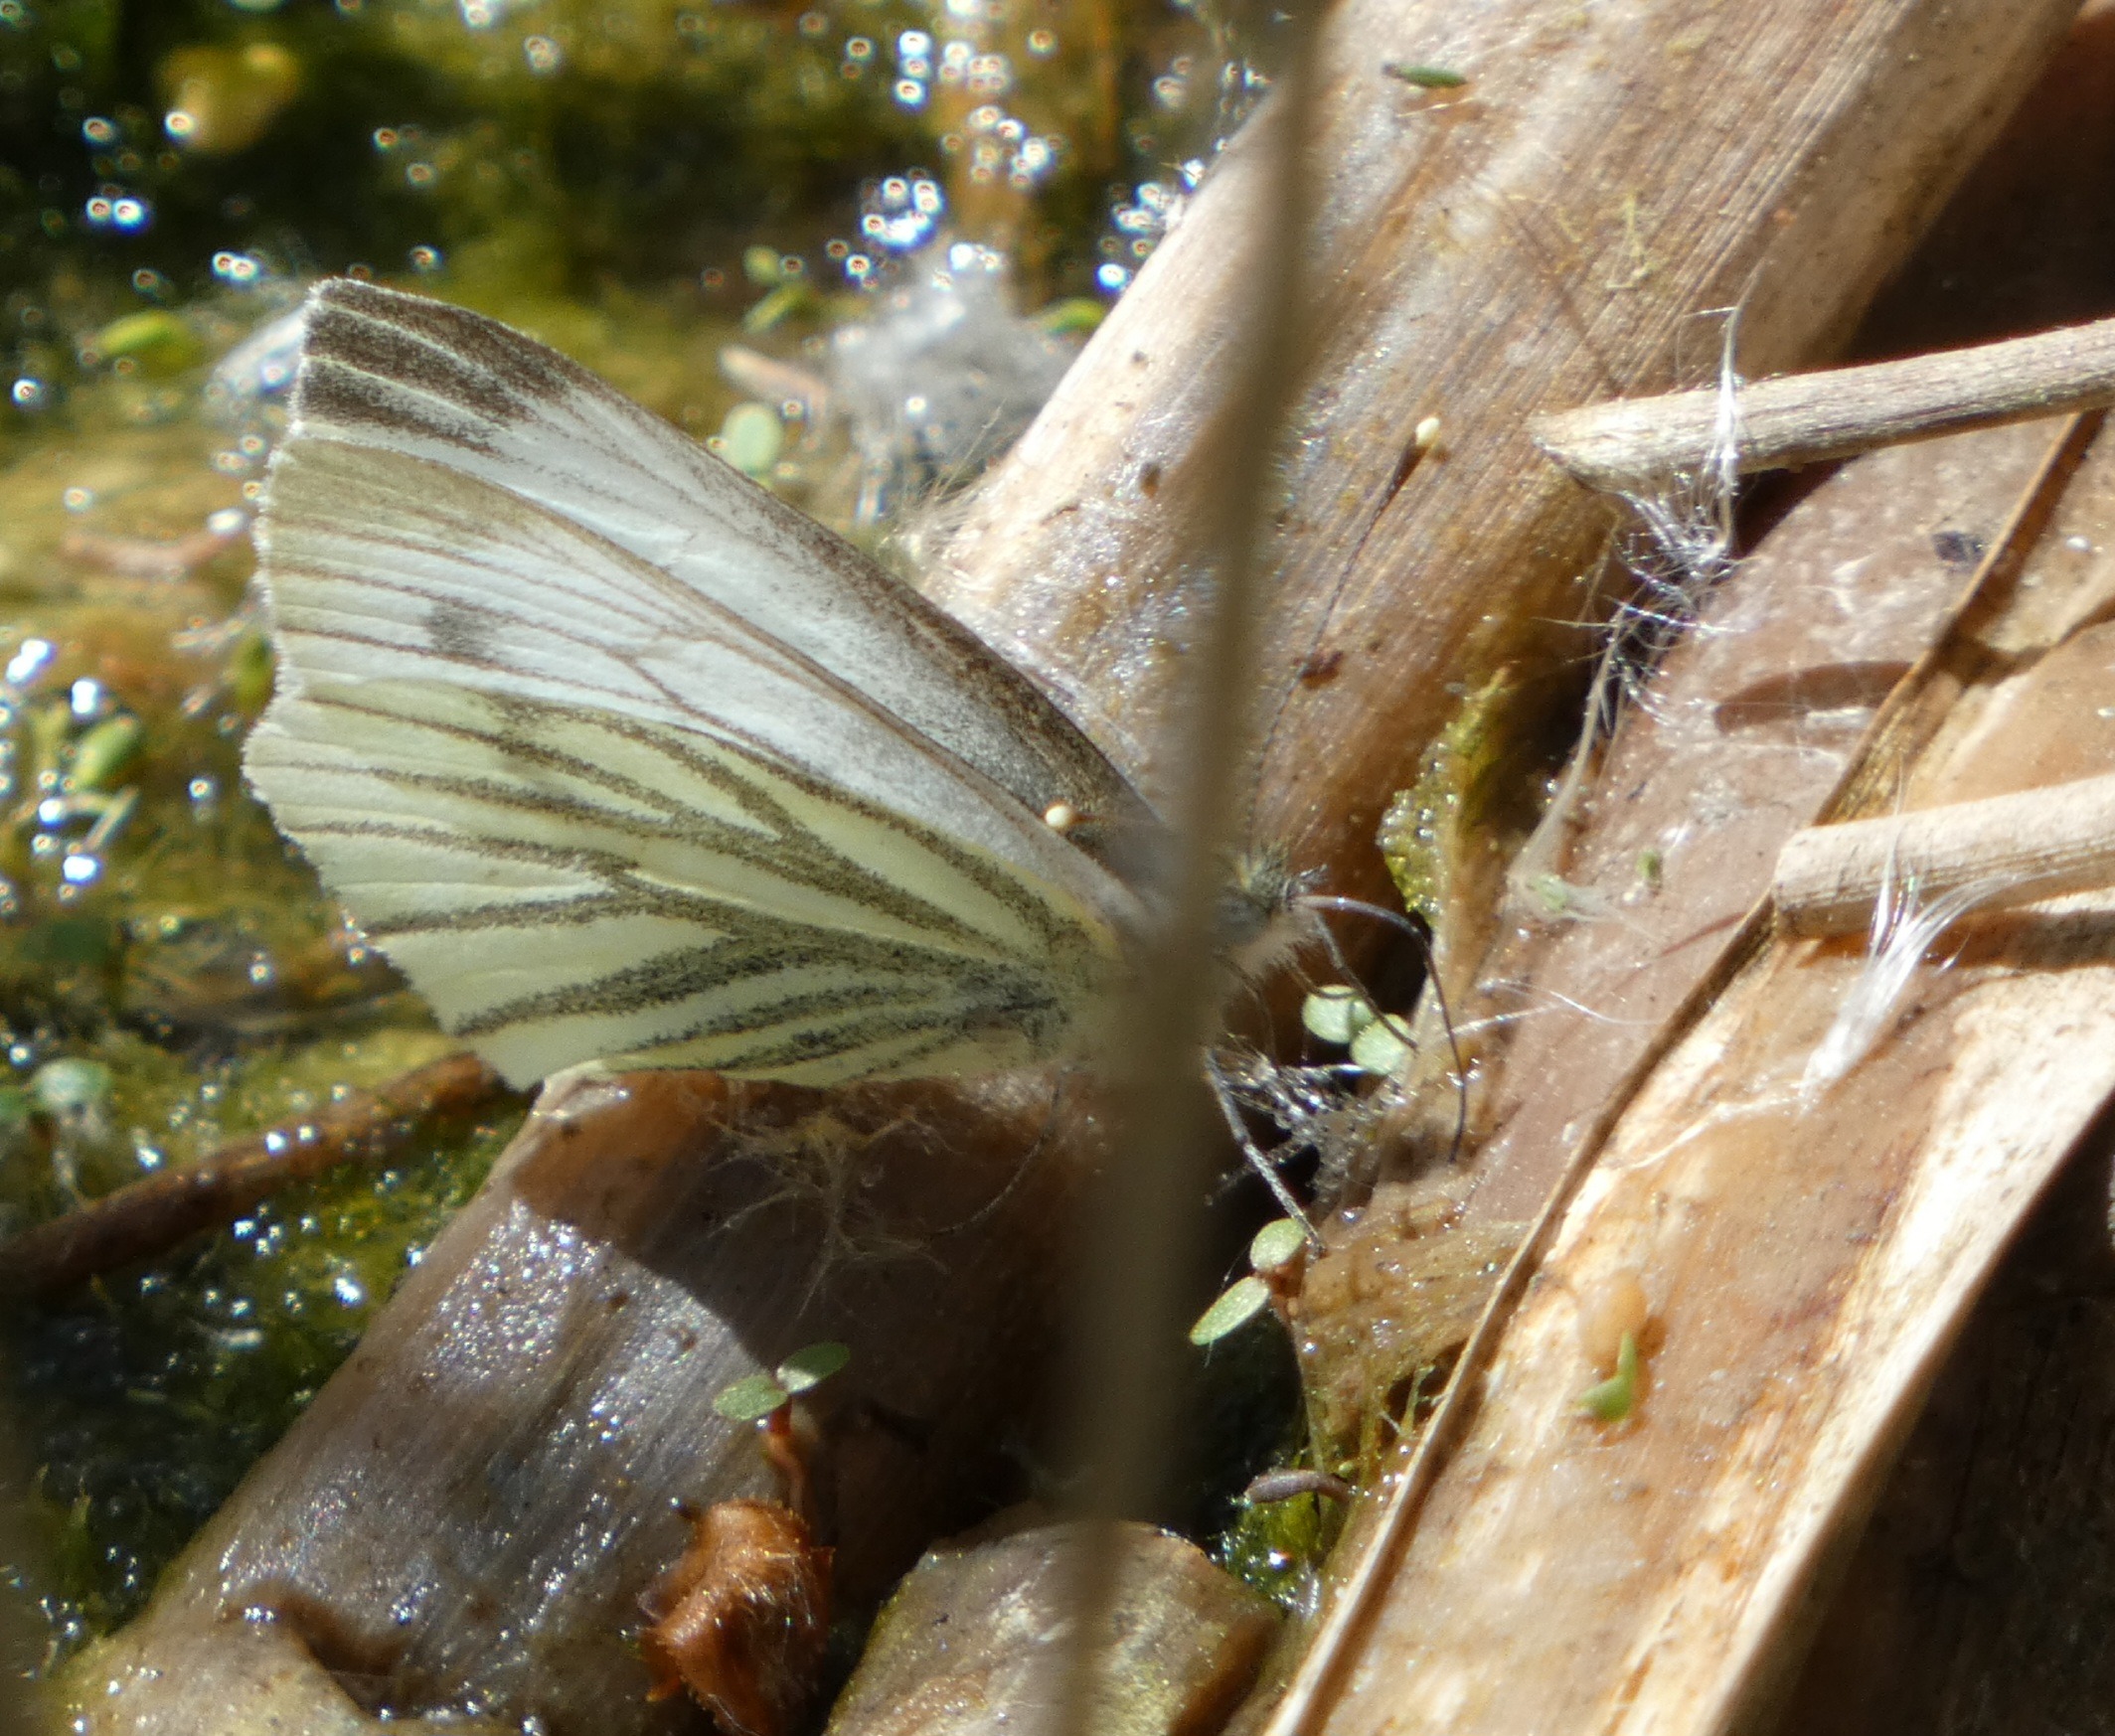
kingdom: Animalia
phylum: Arthropoda
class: Insecta
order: Lepidoptera
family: Pieridae
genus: Pieris
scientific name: Pieris napi
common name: Grønåret kålsommerfugl
